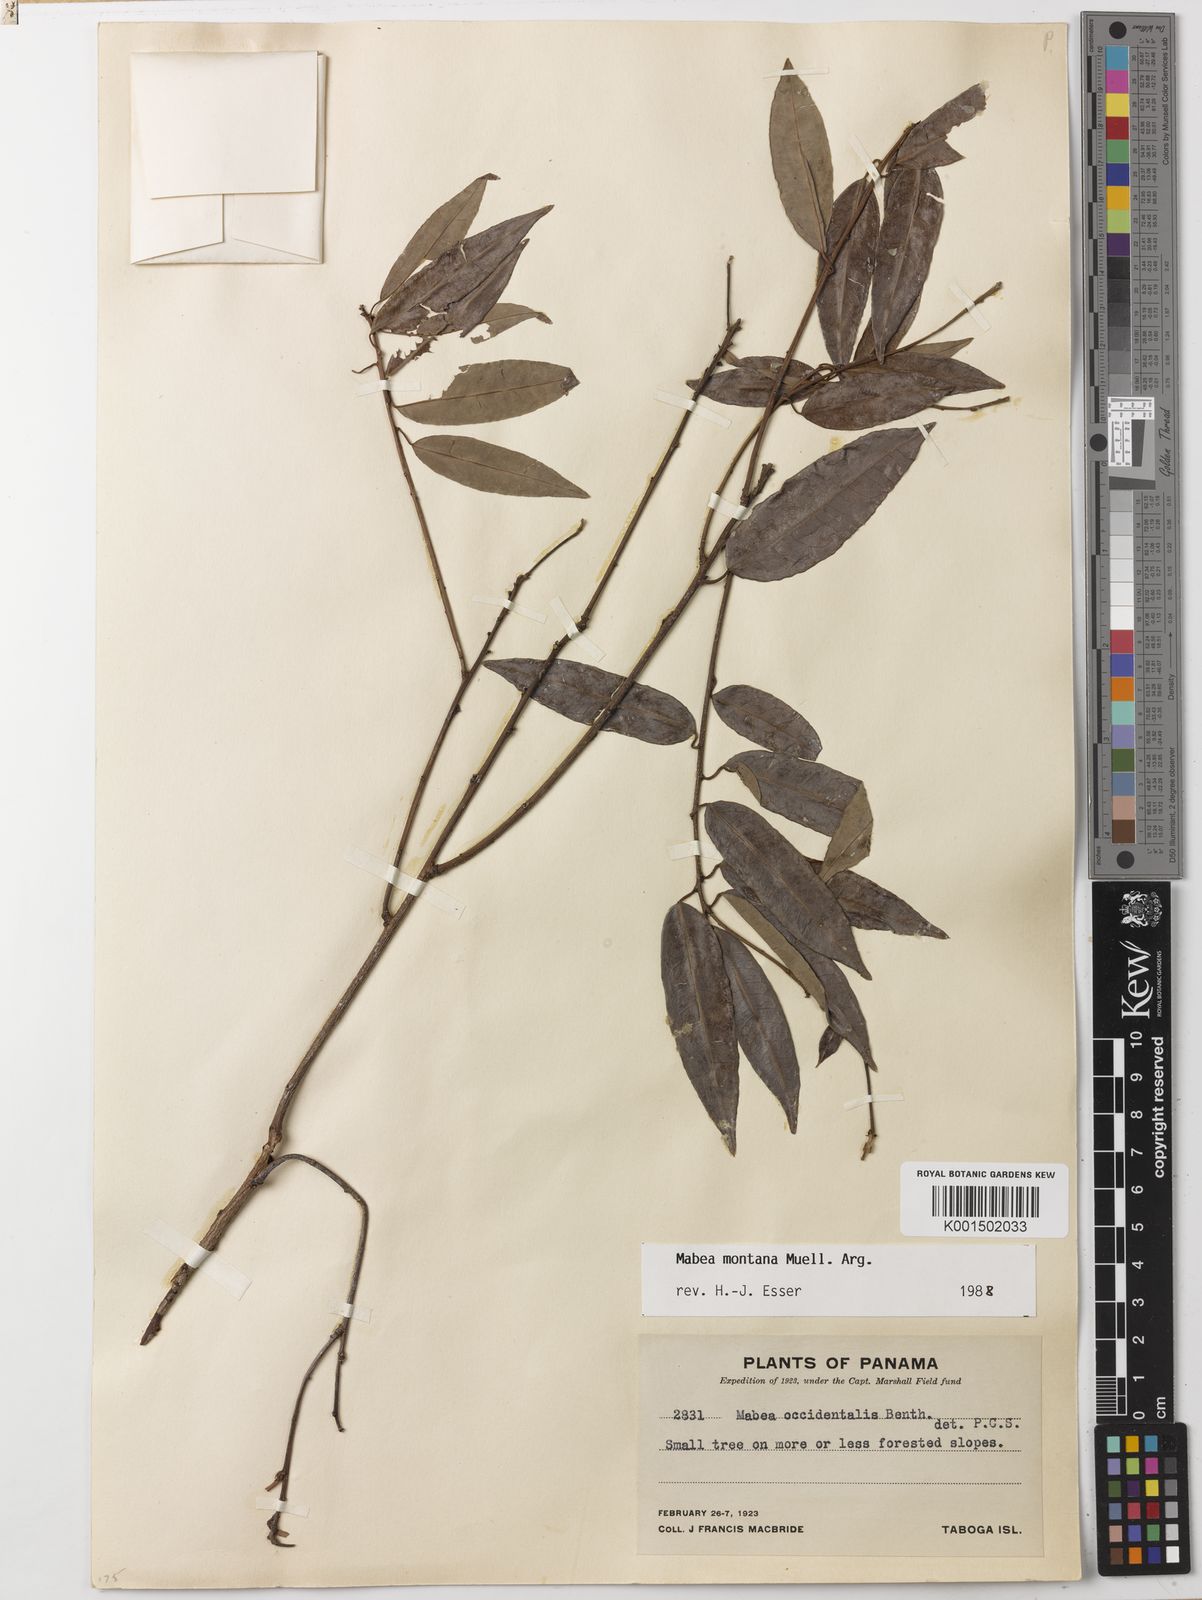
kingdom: Plantae
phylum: Tracheophyta
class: Magnoliopsida
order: Malpighiales
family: Euphorbiaceae
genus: Mabea
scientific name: Mabea montana
